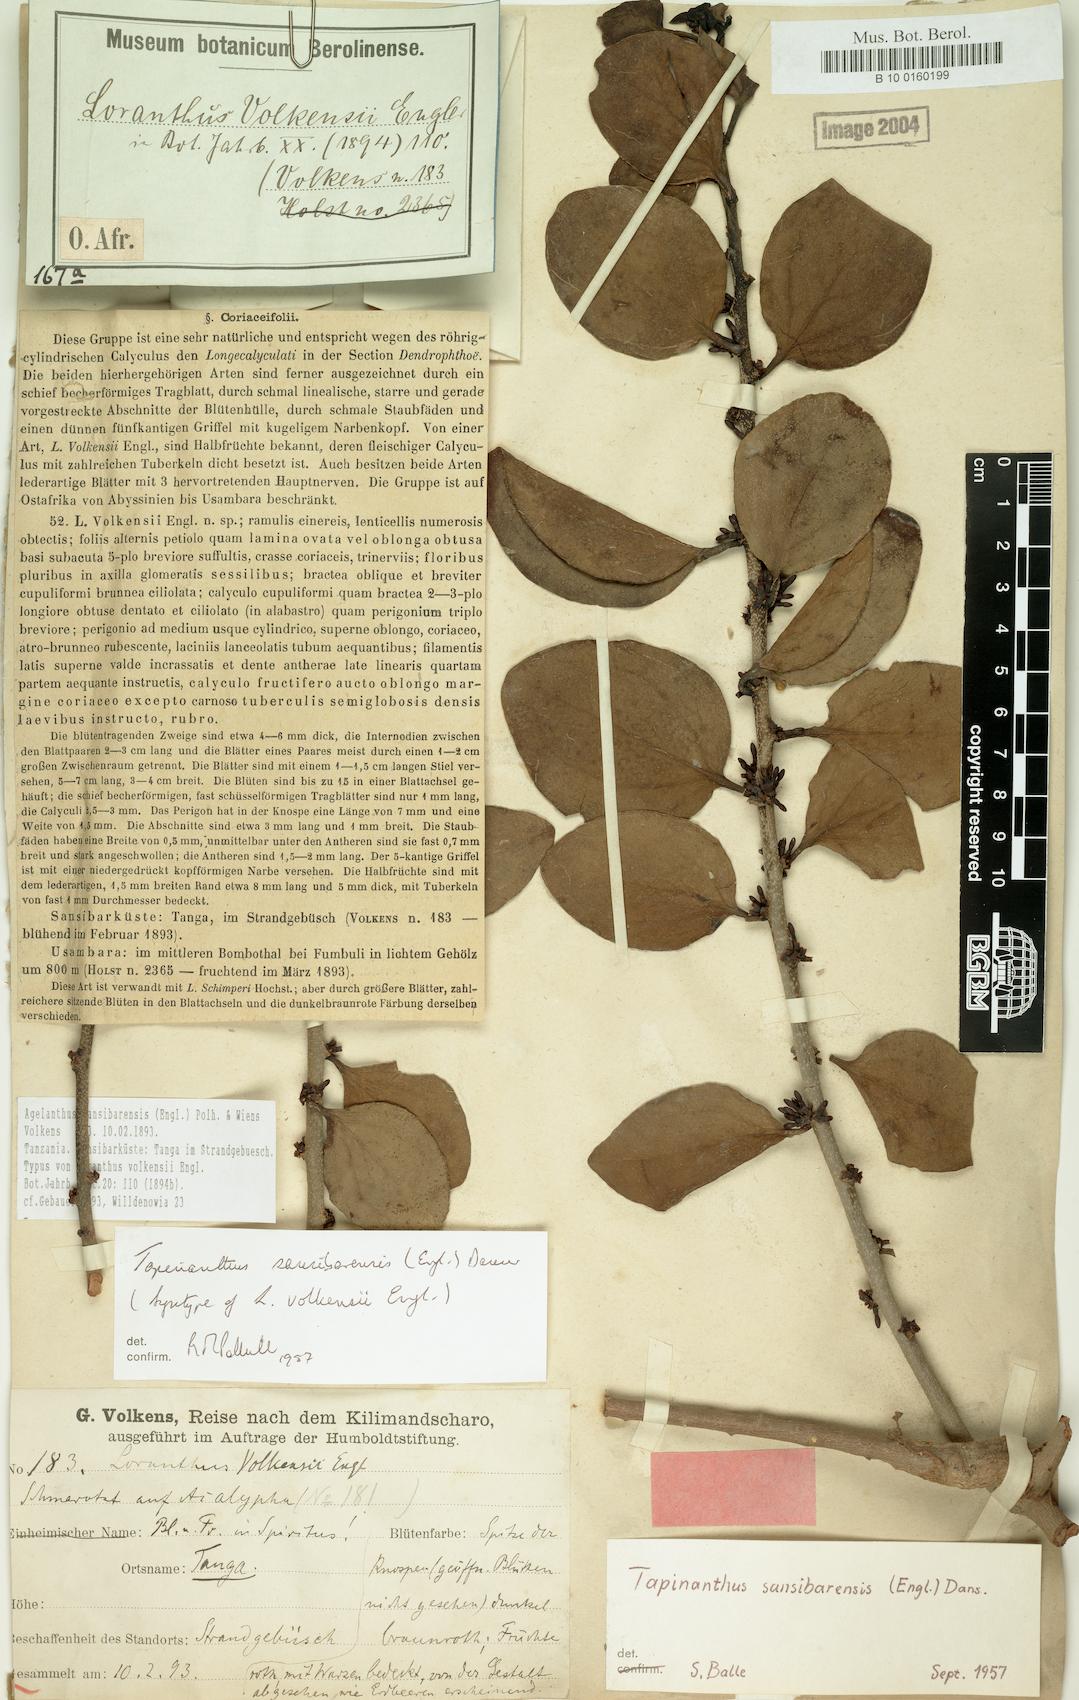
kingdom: Plantae
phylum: Tracheophyta
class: Magnoliopsida
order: Santalales
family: Loranthaceae
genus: Agelanthus
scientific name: Agelanthus sansibarensis
